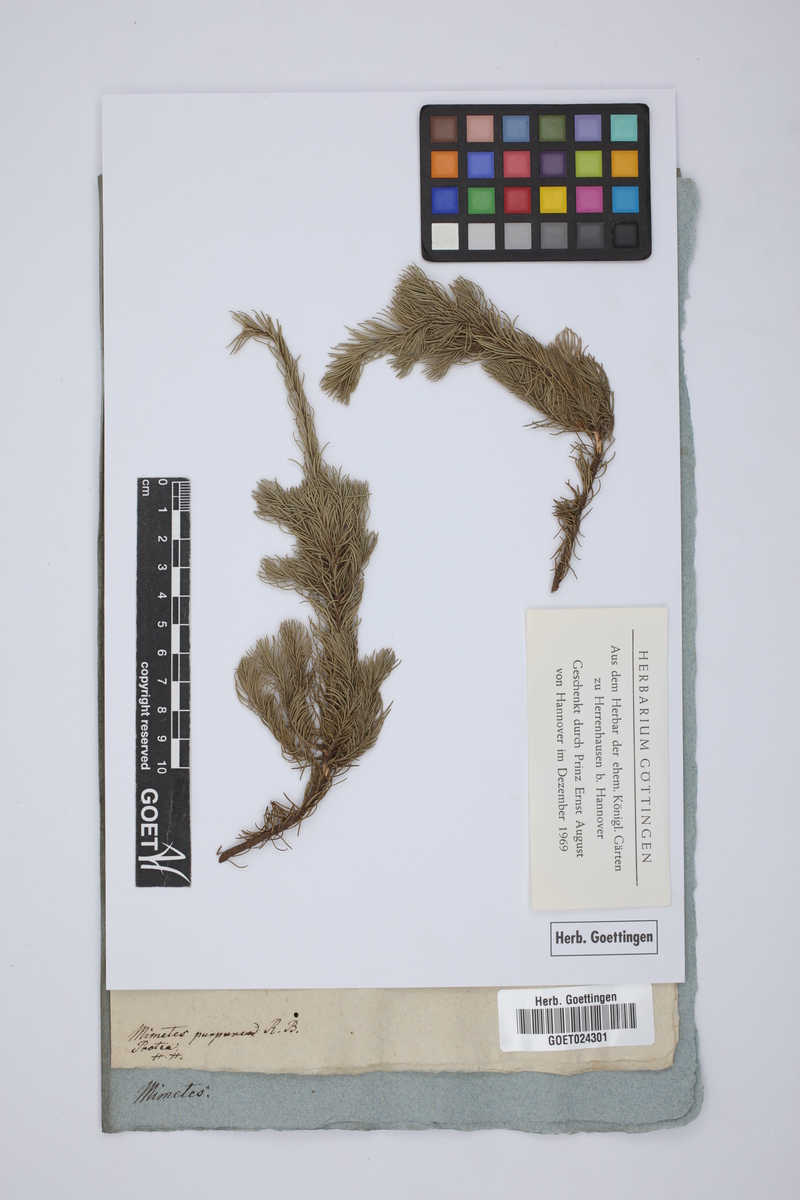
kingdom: Plantae
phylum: Tracheophyta
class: Magnoliopsida
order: Proteales
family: Proteaceae
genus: Diastella
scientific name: Diastella proteoides
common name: Flats silkypuff
